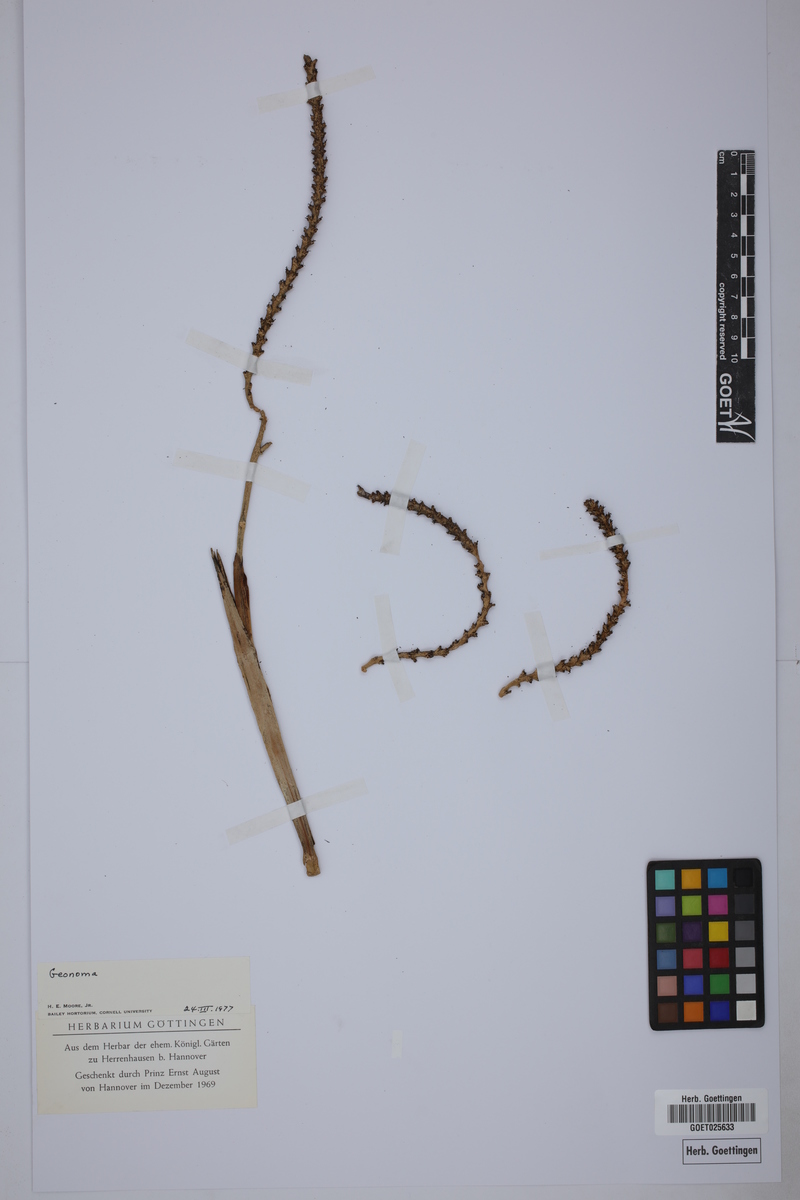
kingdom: Plantae
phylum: Tracheophyta
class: Liliopsida
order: Arecales
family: Arecaceae
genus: Geonoma
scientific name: Geonoma
